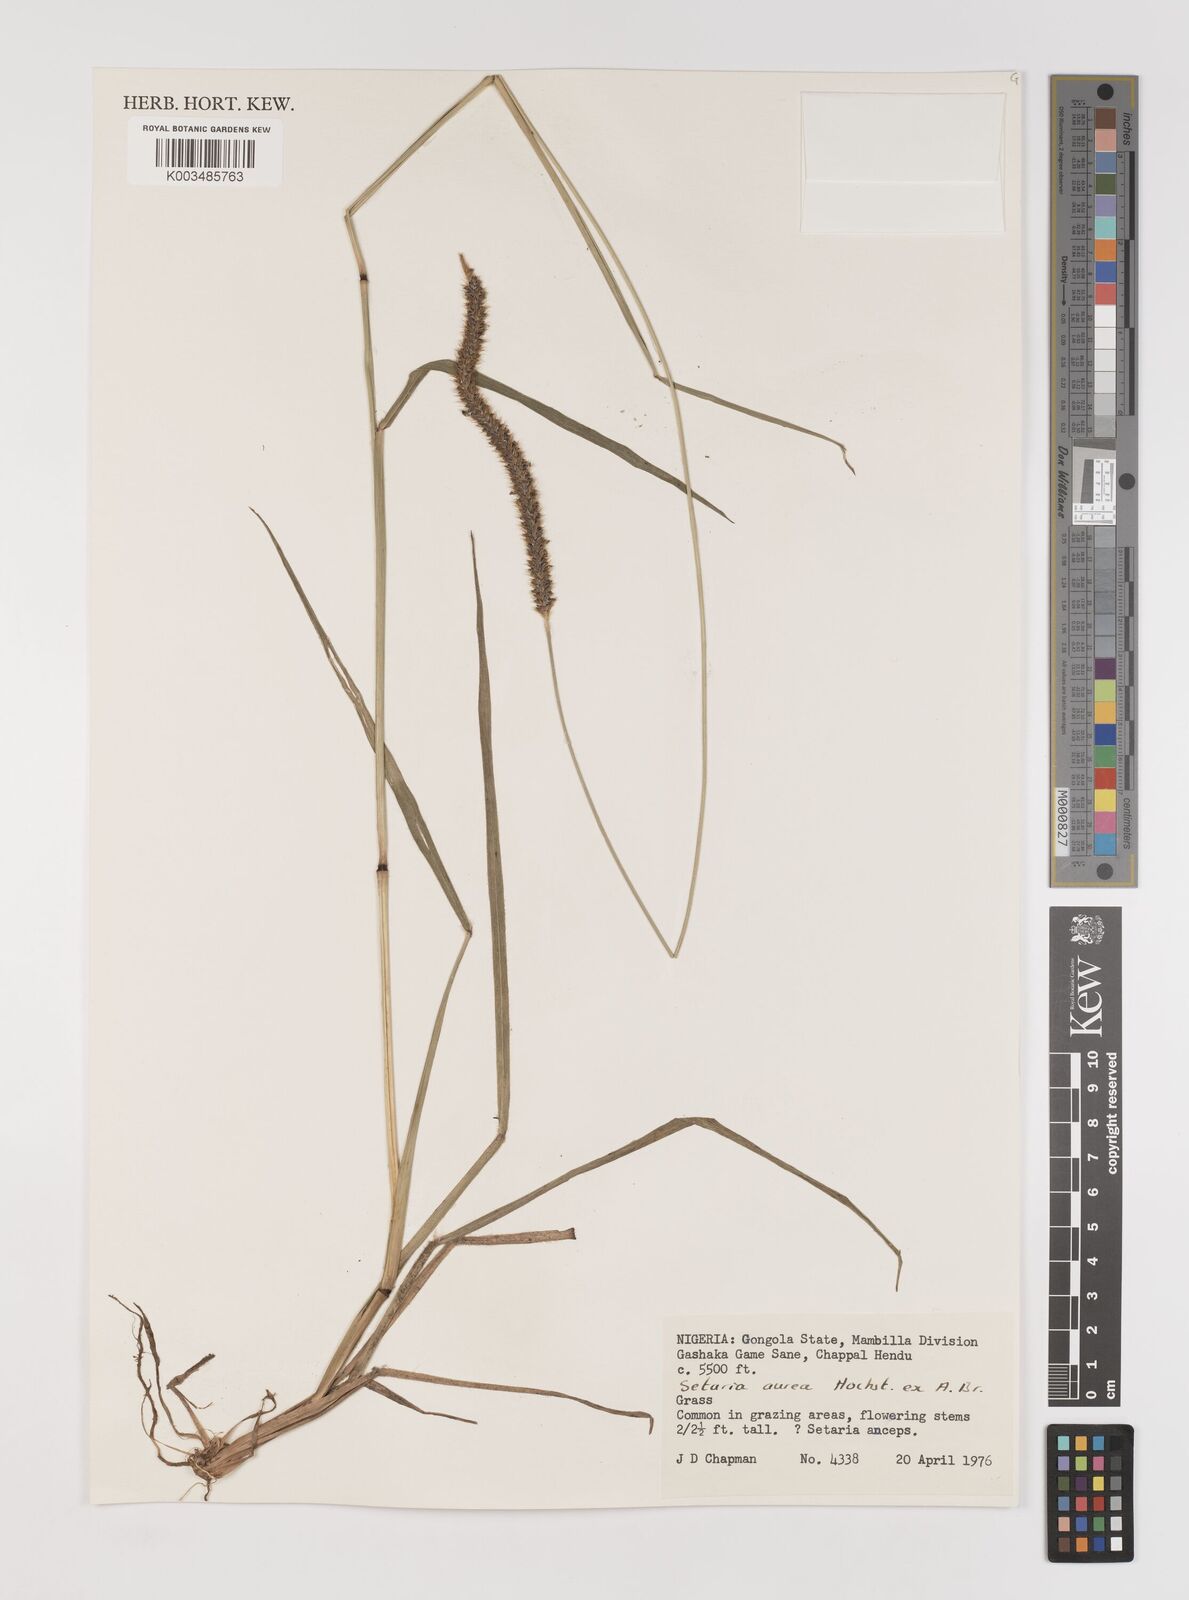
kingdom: Plantae
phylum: Tracheophyta
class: Liliopsida
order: Poales
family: Poaceae
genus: Setaria
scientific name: Setaria sphacelata
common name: African bristlegrass
